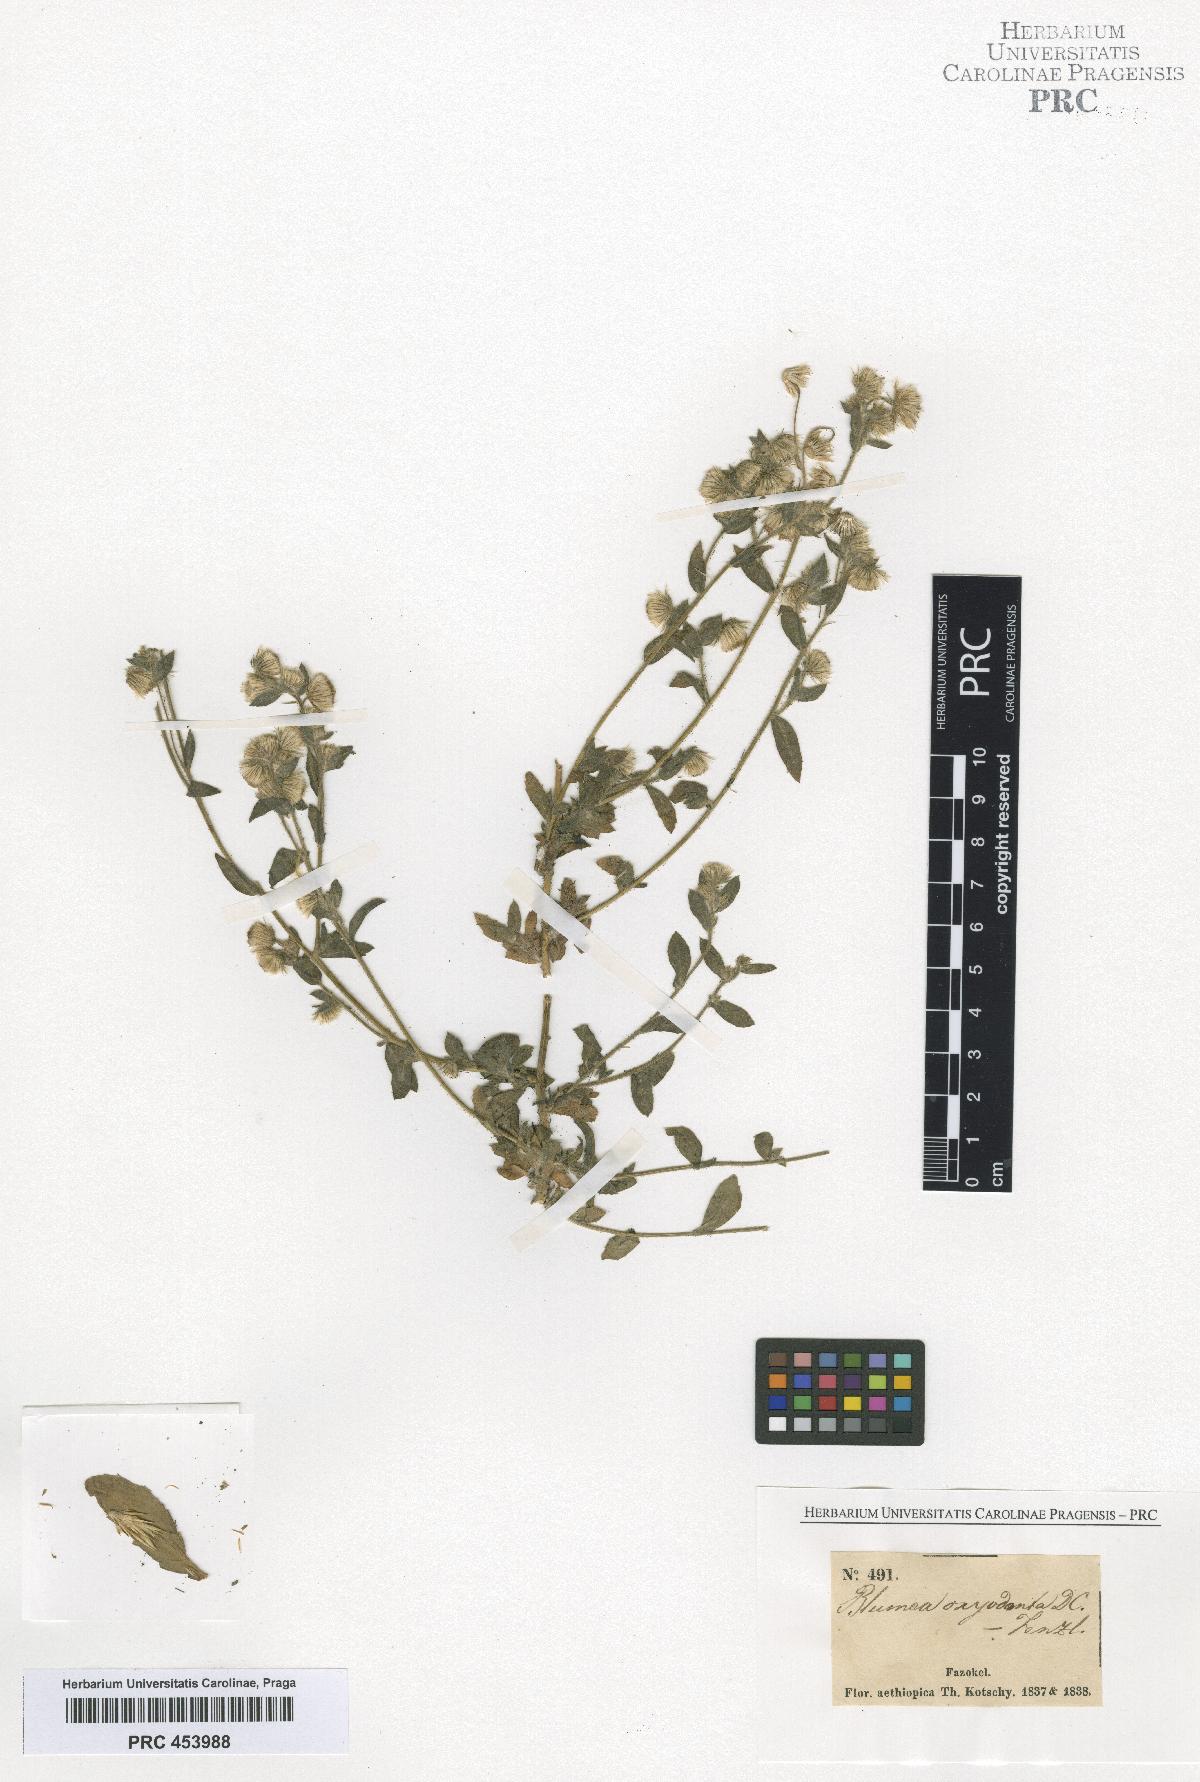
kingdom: Plantae
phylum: Tracheophyta
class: Magnoliopsida
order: Asterales
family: Asteraceae
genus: Blumea
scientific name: Blumea oxyodonta
